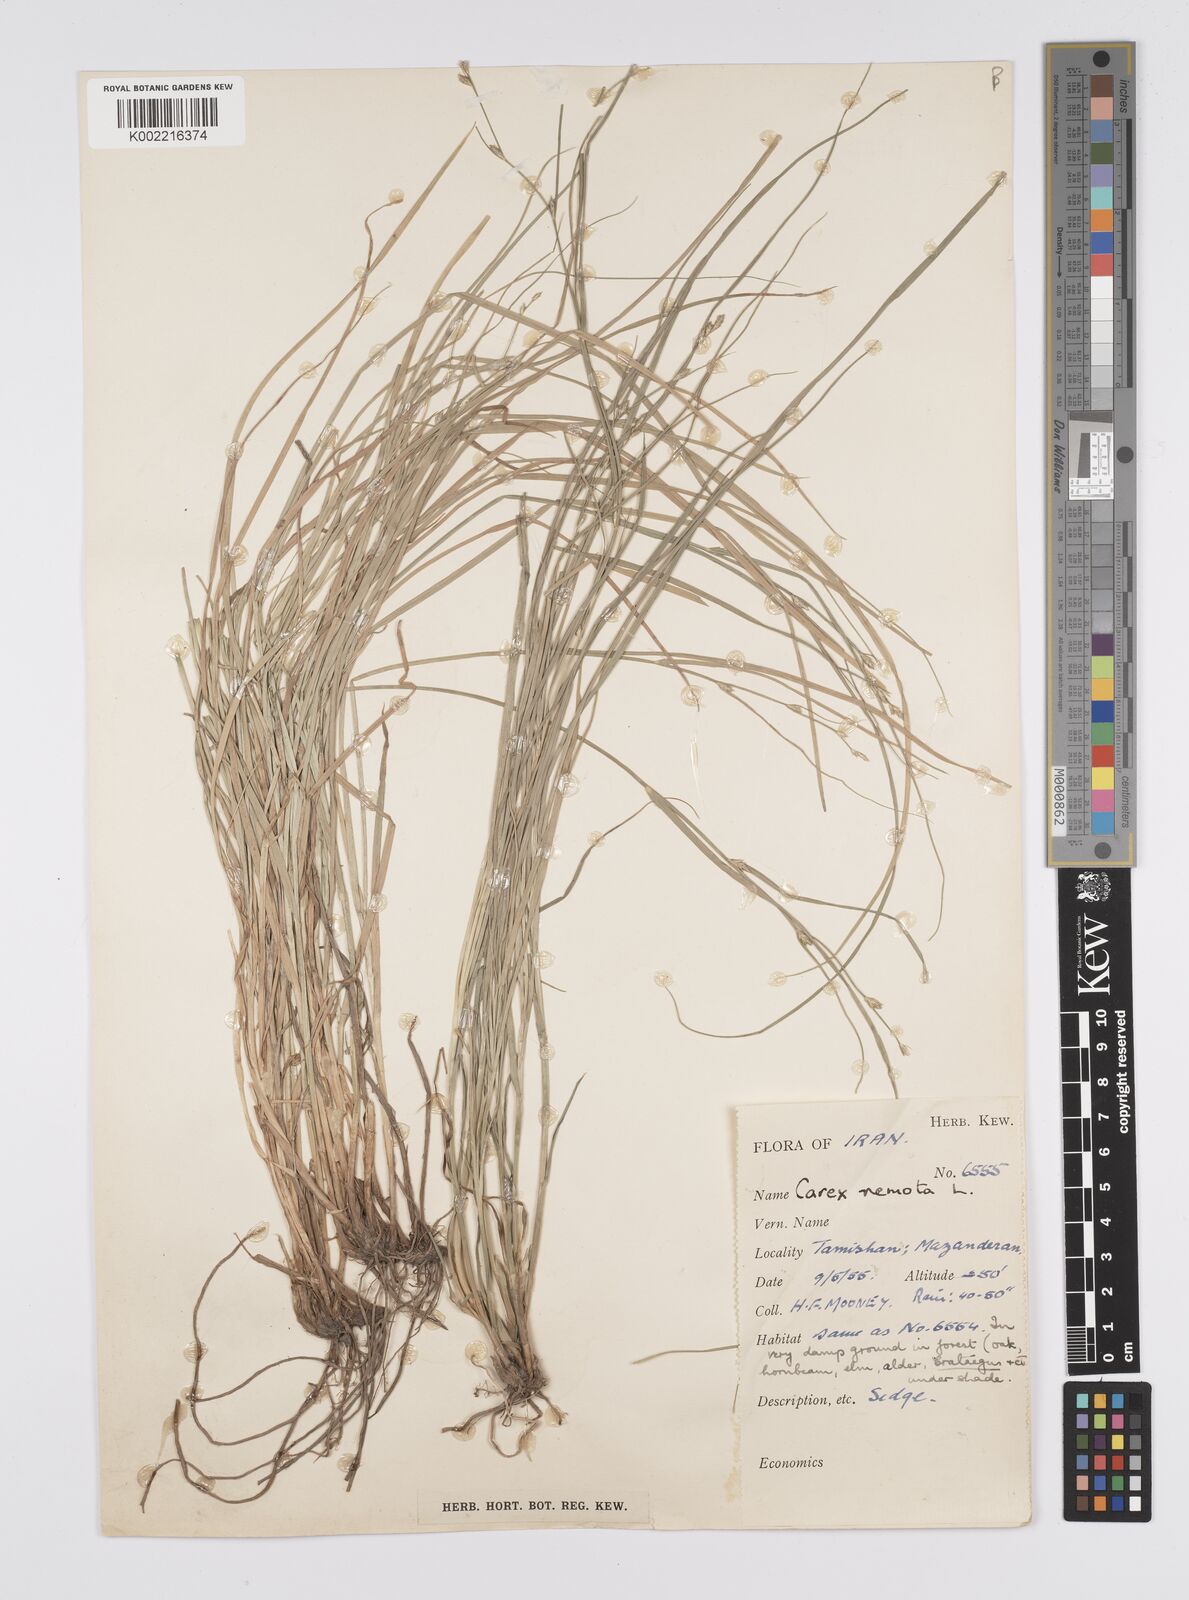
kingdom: Plantae
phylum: Tracheophyta
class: Liliopsida
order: Poales
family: Cyperaceae
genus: Carex
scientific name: Carex remota
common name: Remote sedge
